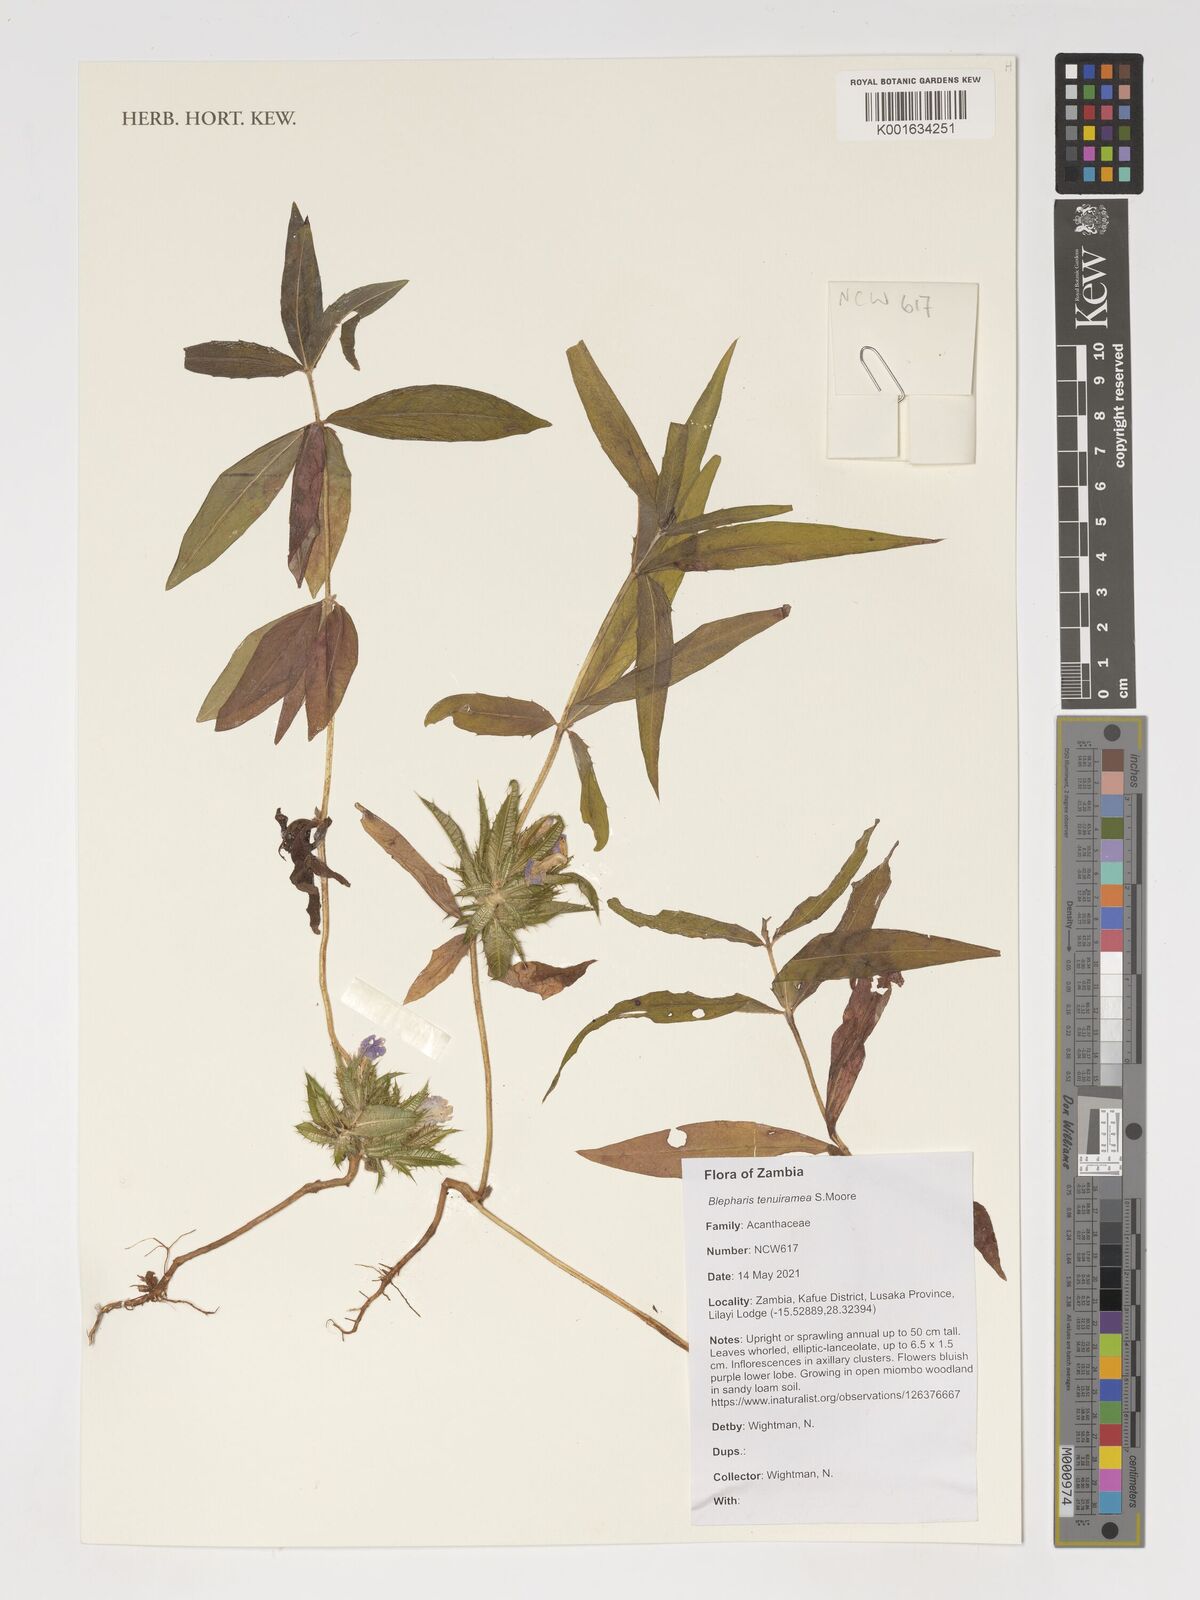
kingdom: Plantae
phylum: Tracheophyta
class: Magnoliopsida
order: Lamiales
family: Acanthaceae
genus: Blepharis
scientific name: Blepharis tenuiramea
